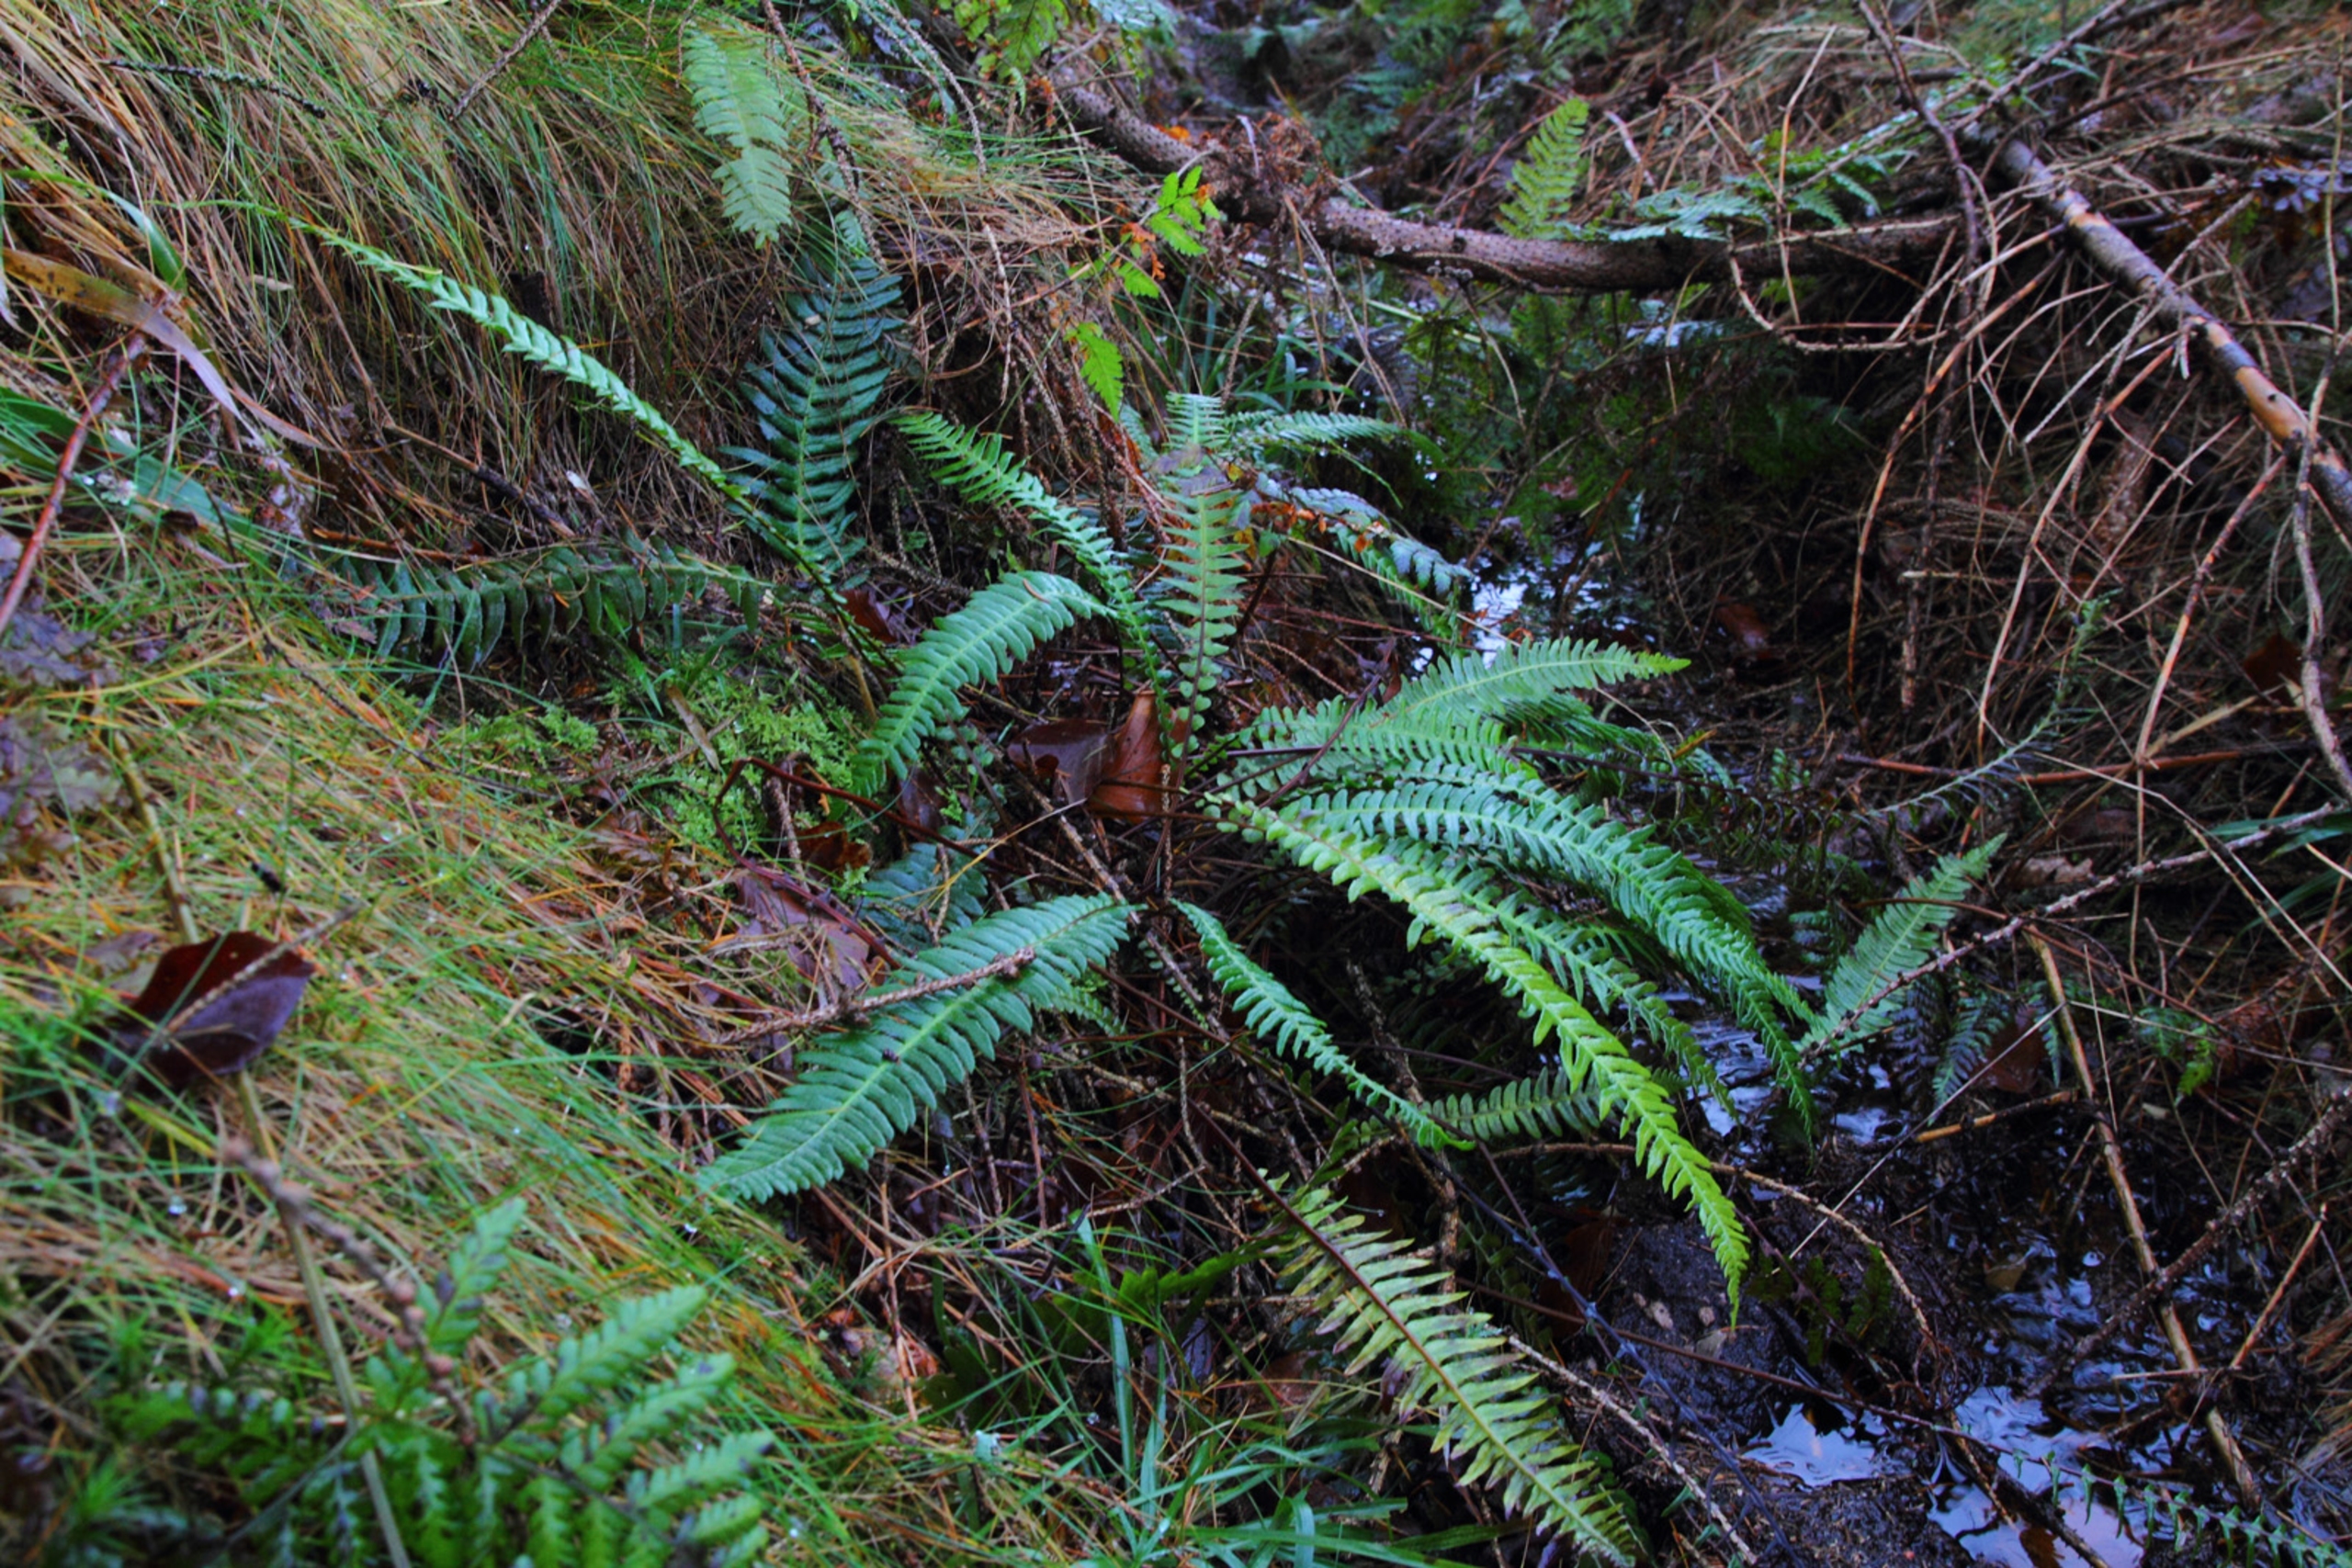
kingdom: Plantae
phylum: Tracheophyta
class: Polypodiopsida
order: Polypodiales
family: Blechnaceae
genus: Struthiopteris
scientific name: Struthiopteris spicant
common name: Kambregne
